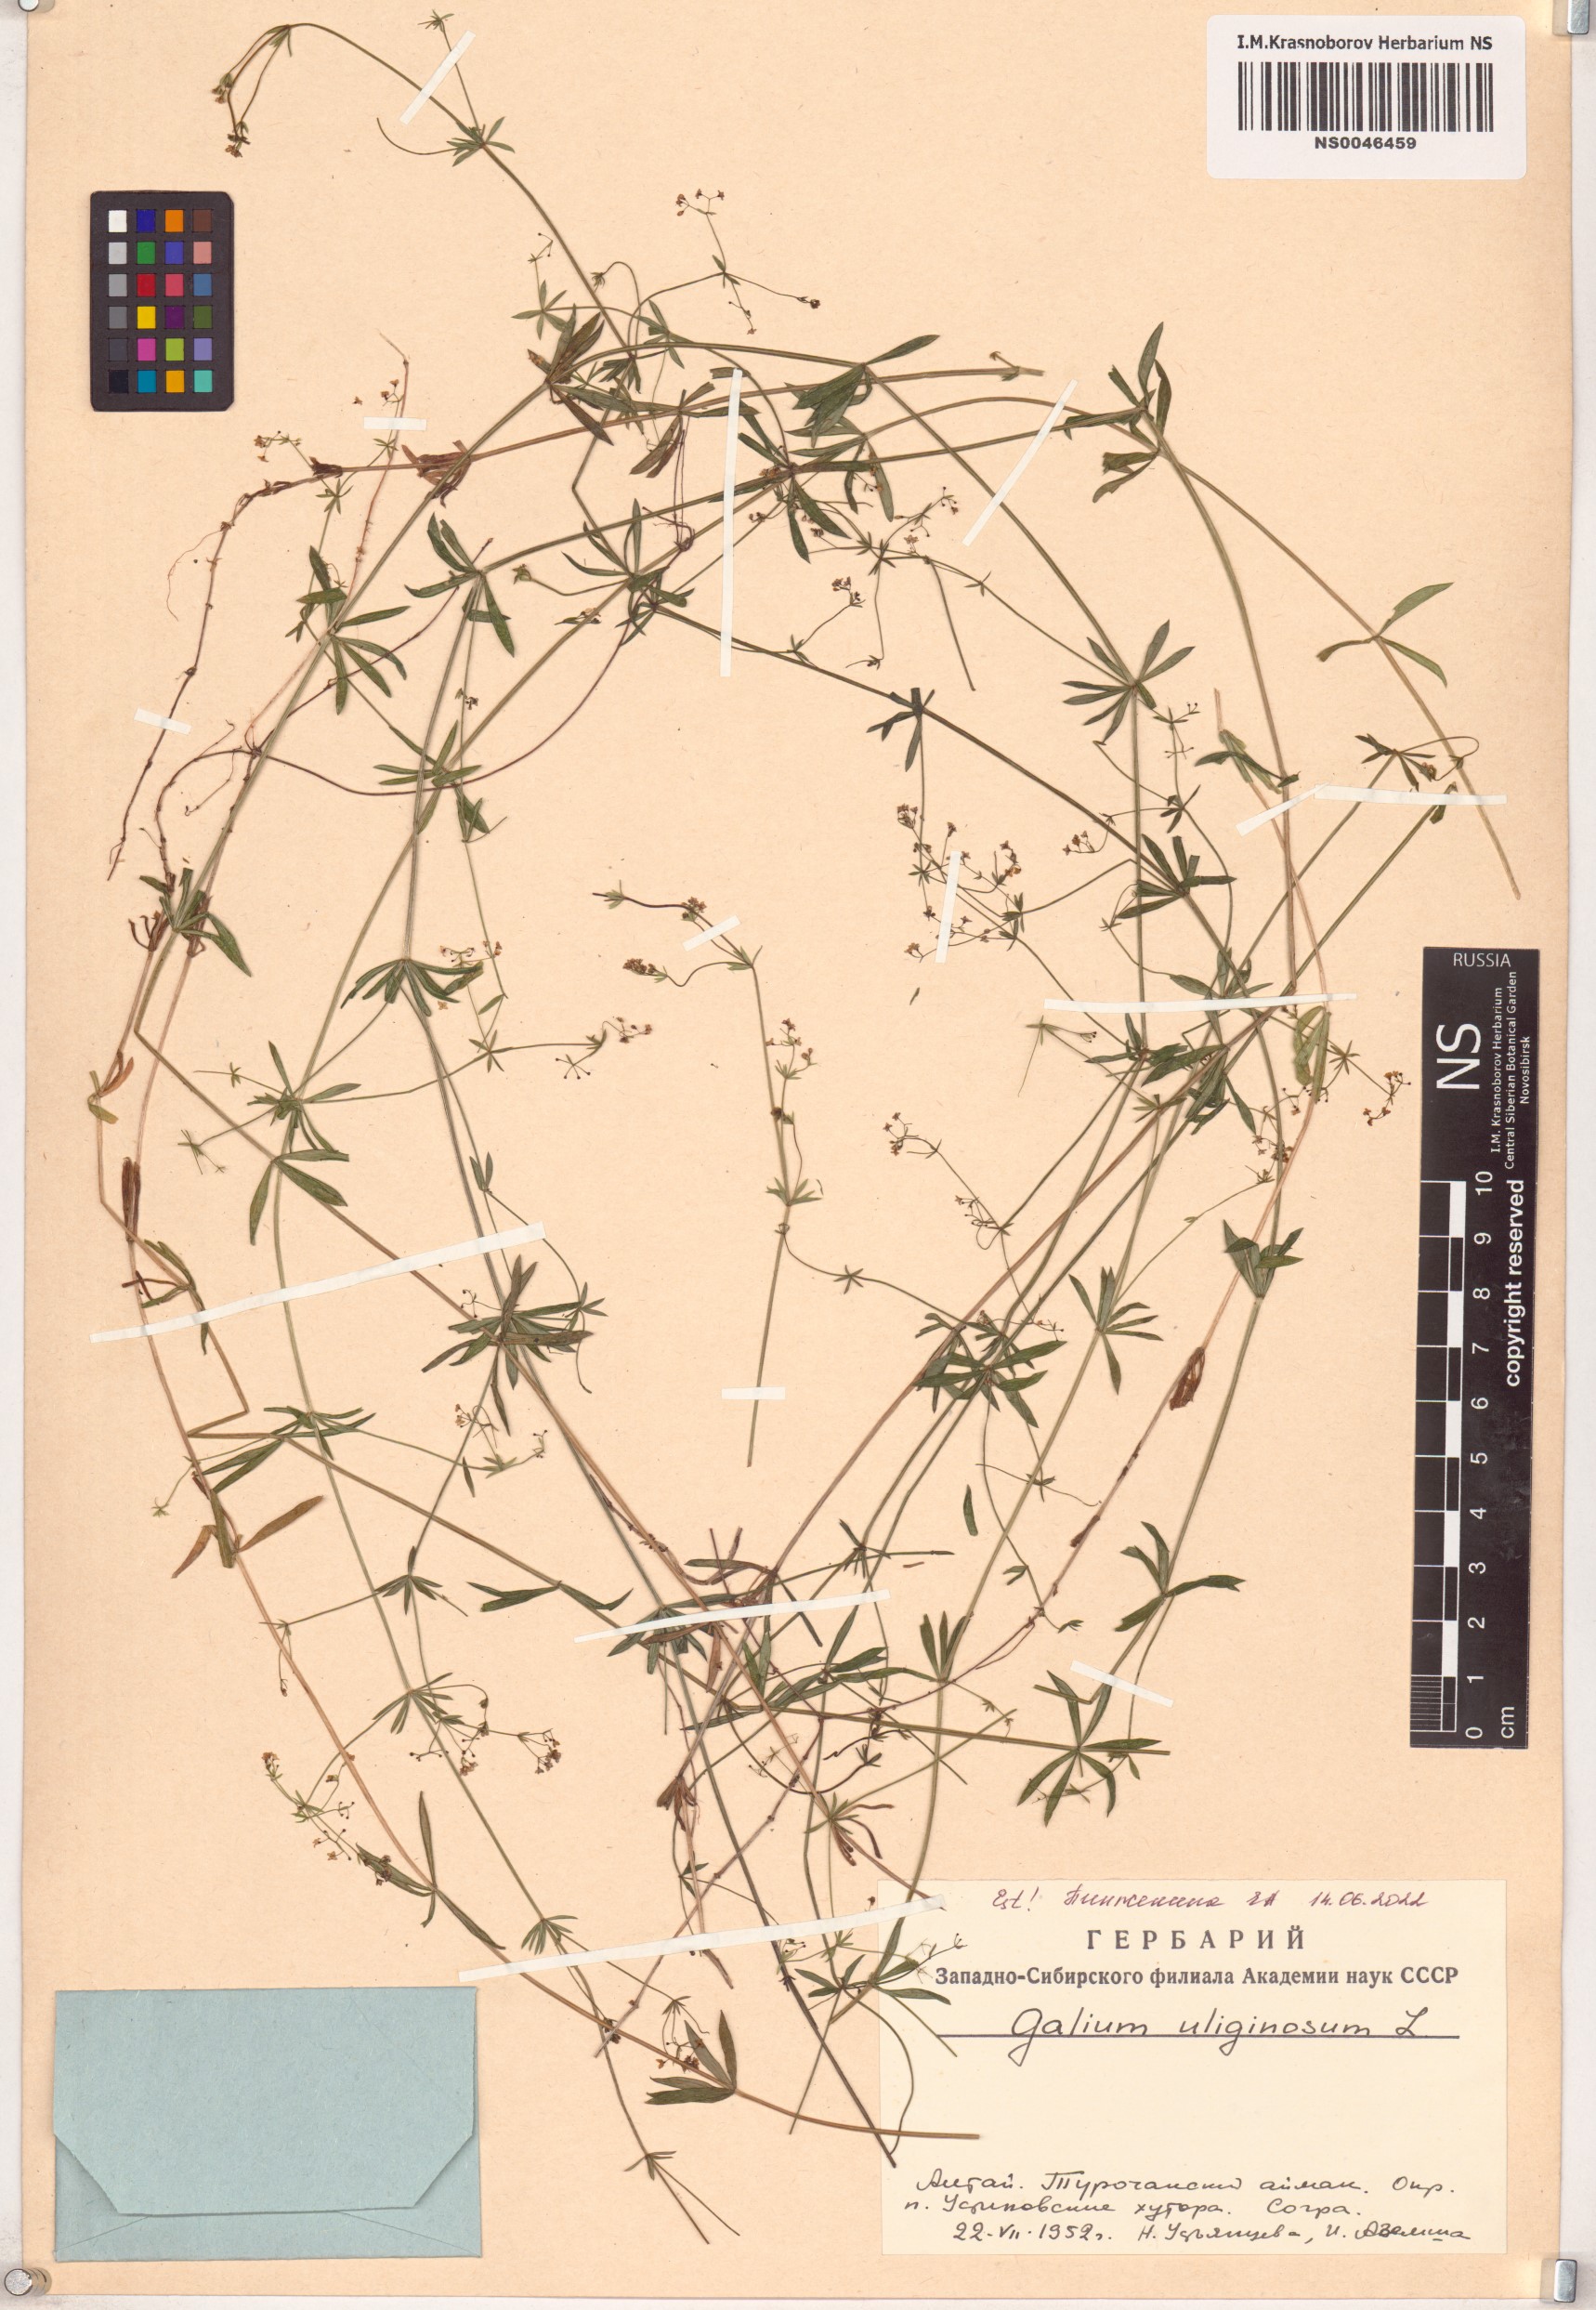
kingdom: Plantae
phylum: Tracheophyta
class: Magnoliopsida
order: Gentianales
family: Rubiaceae
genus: Galium
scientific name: Galium uliginosum
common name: Fen bedstraw
